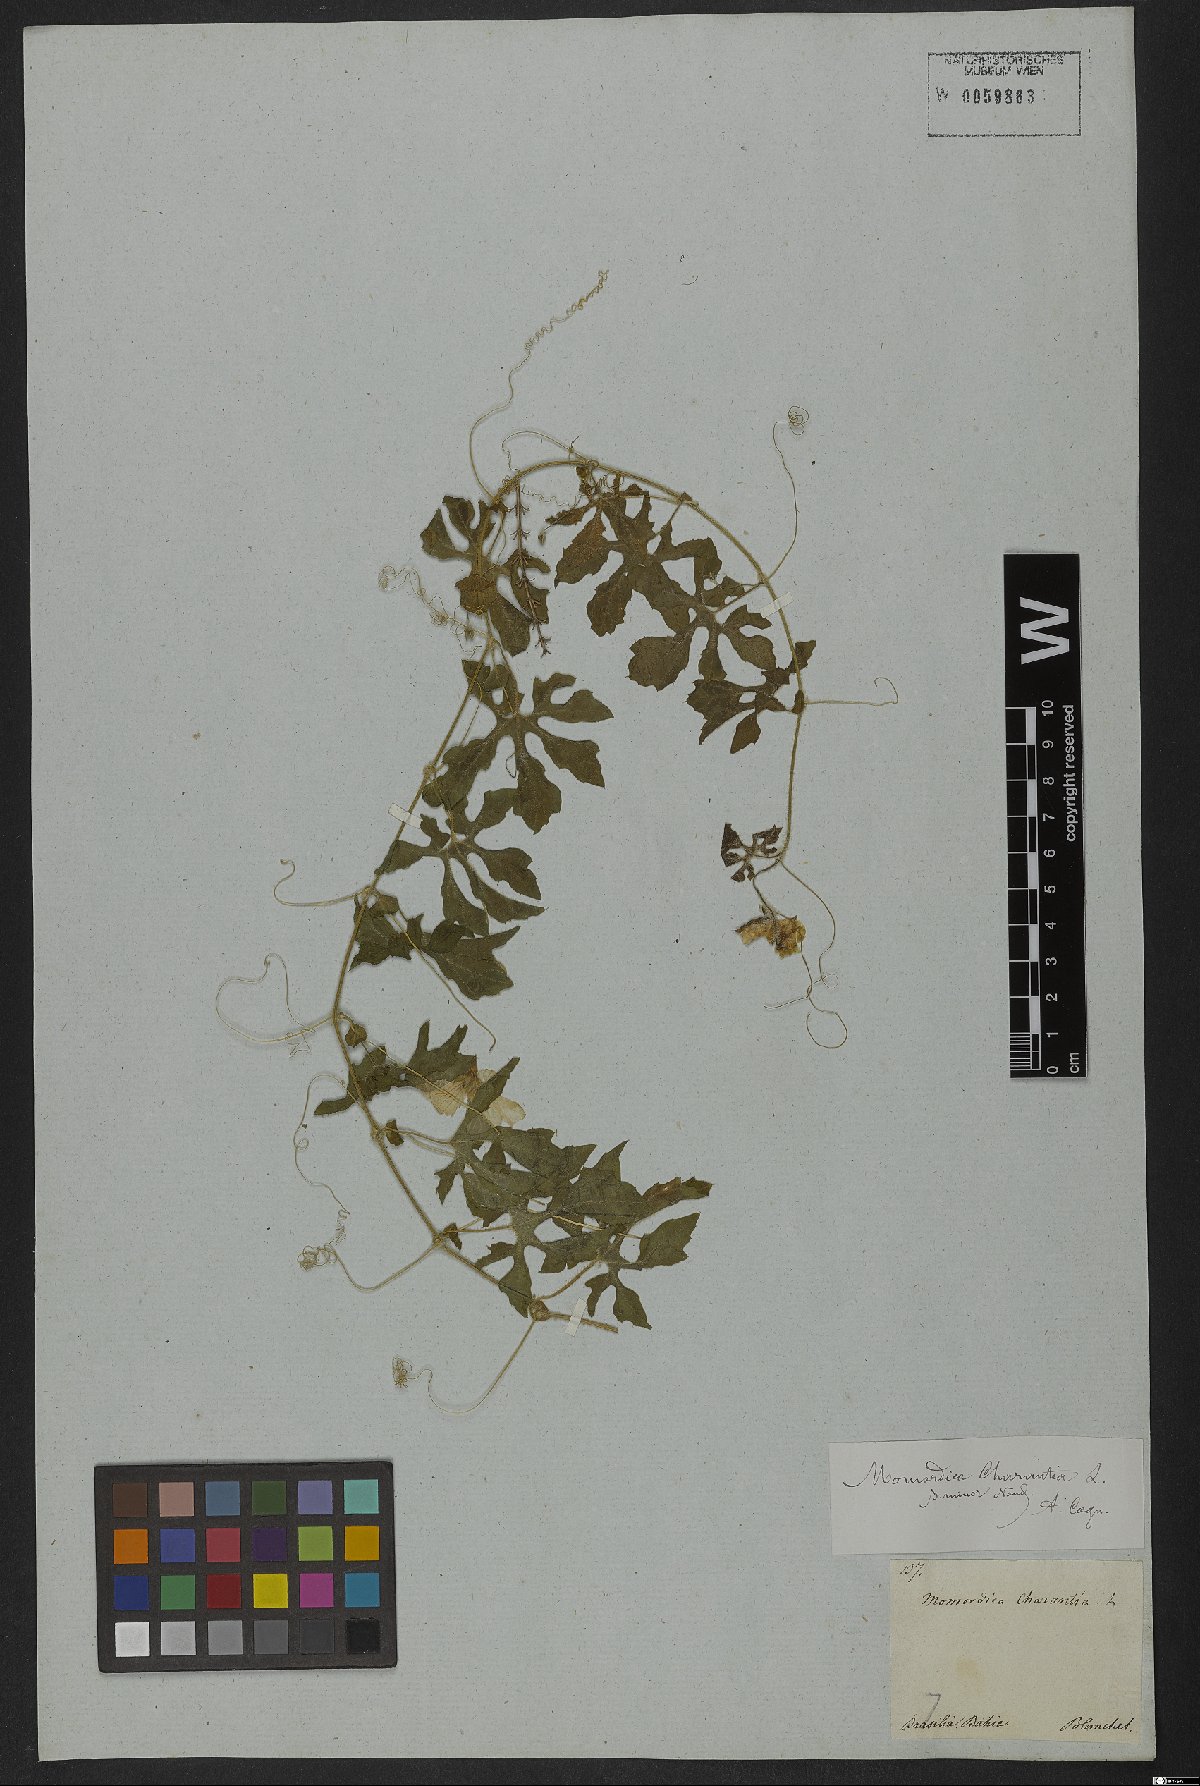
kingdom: Plantae
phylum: Tracheophyta
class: Magnoliopsida
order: Cucurbitales
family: Cucurbitaceae
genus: Momordica
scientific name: Momordica charantia
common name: Balsampear
